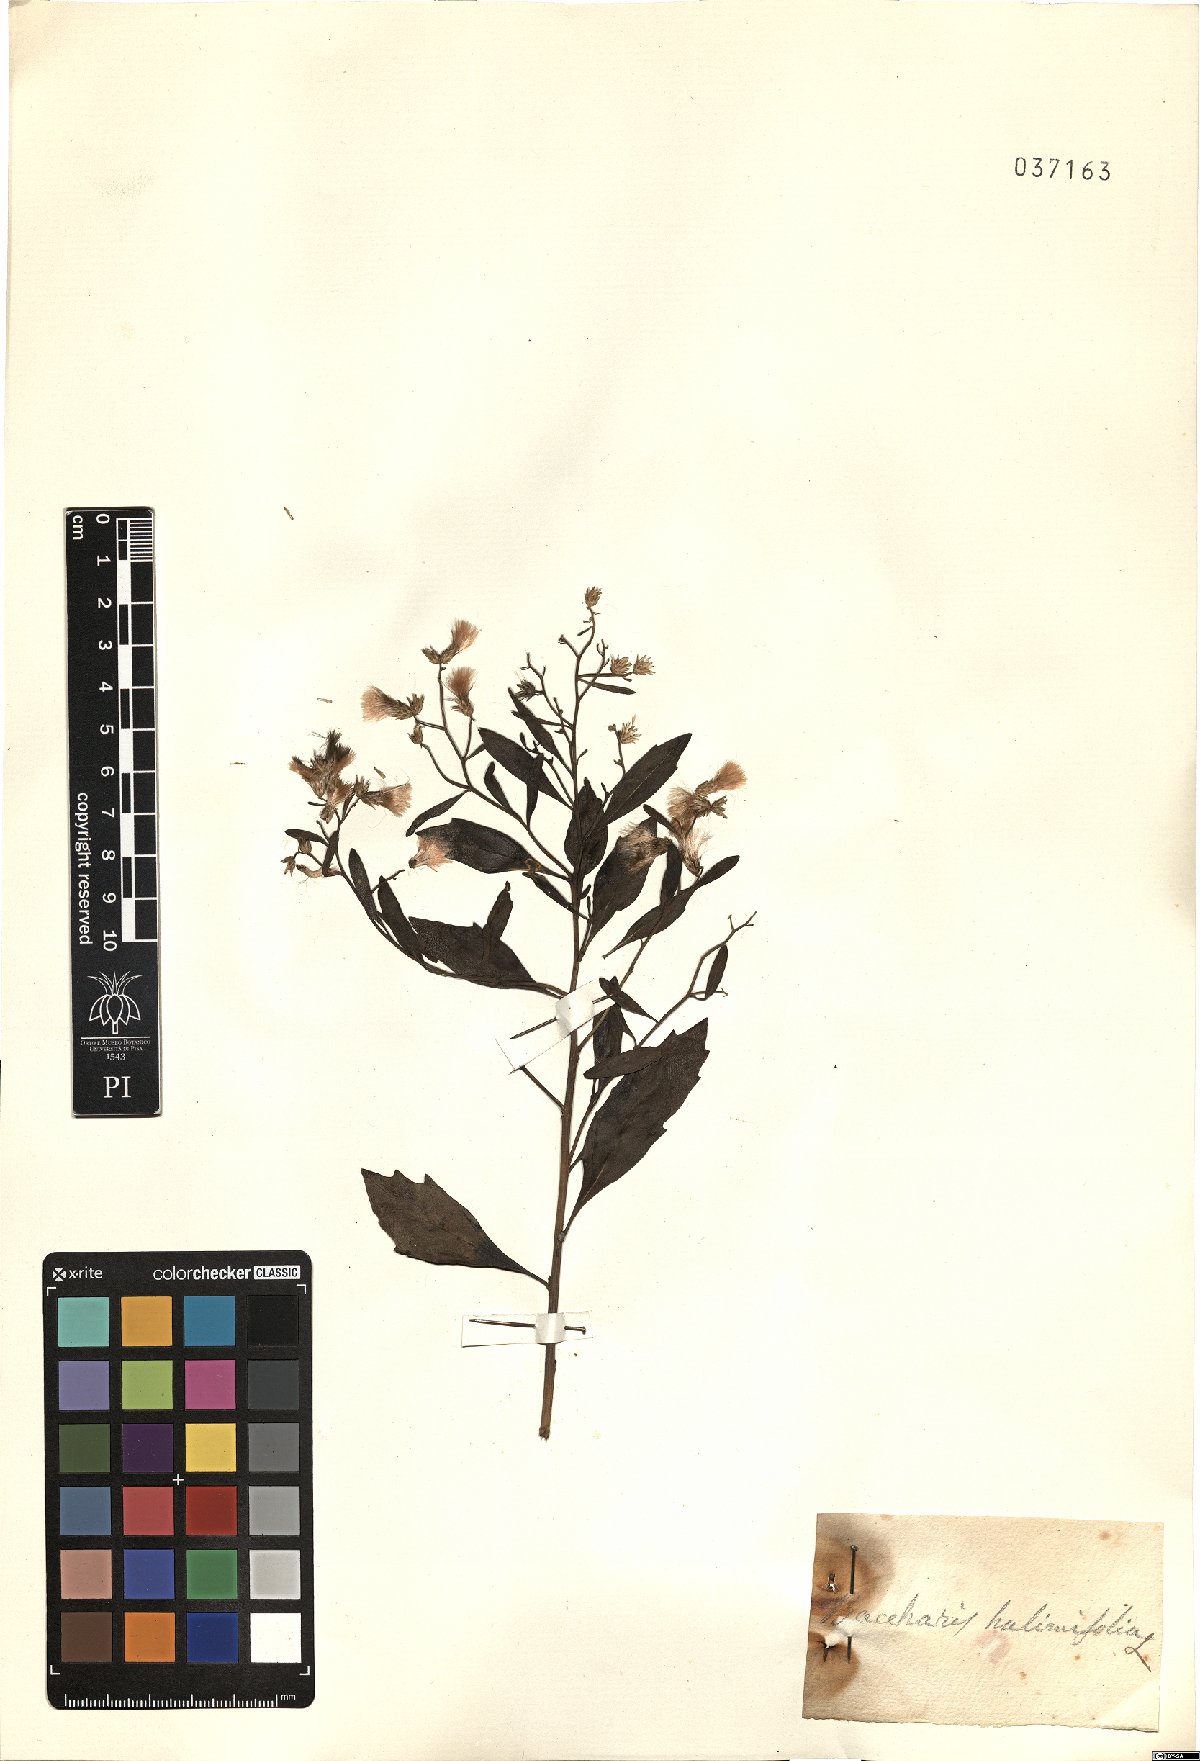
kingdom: Plantae
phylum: Tracheophyta
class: Magnoliopsida
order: Asterales
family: Asteraceae
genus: Baccharis
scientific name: Baccharis halimifolia
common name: Eastern baccharis
